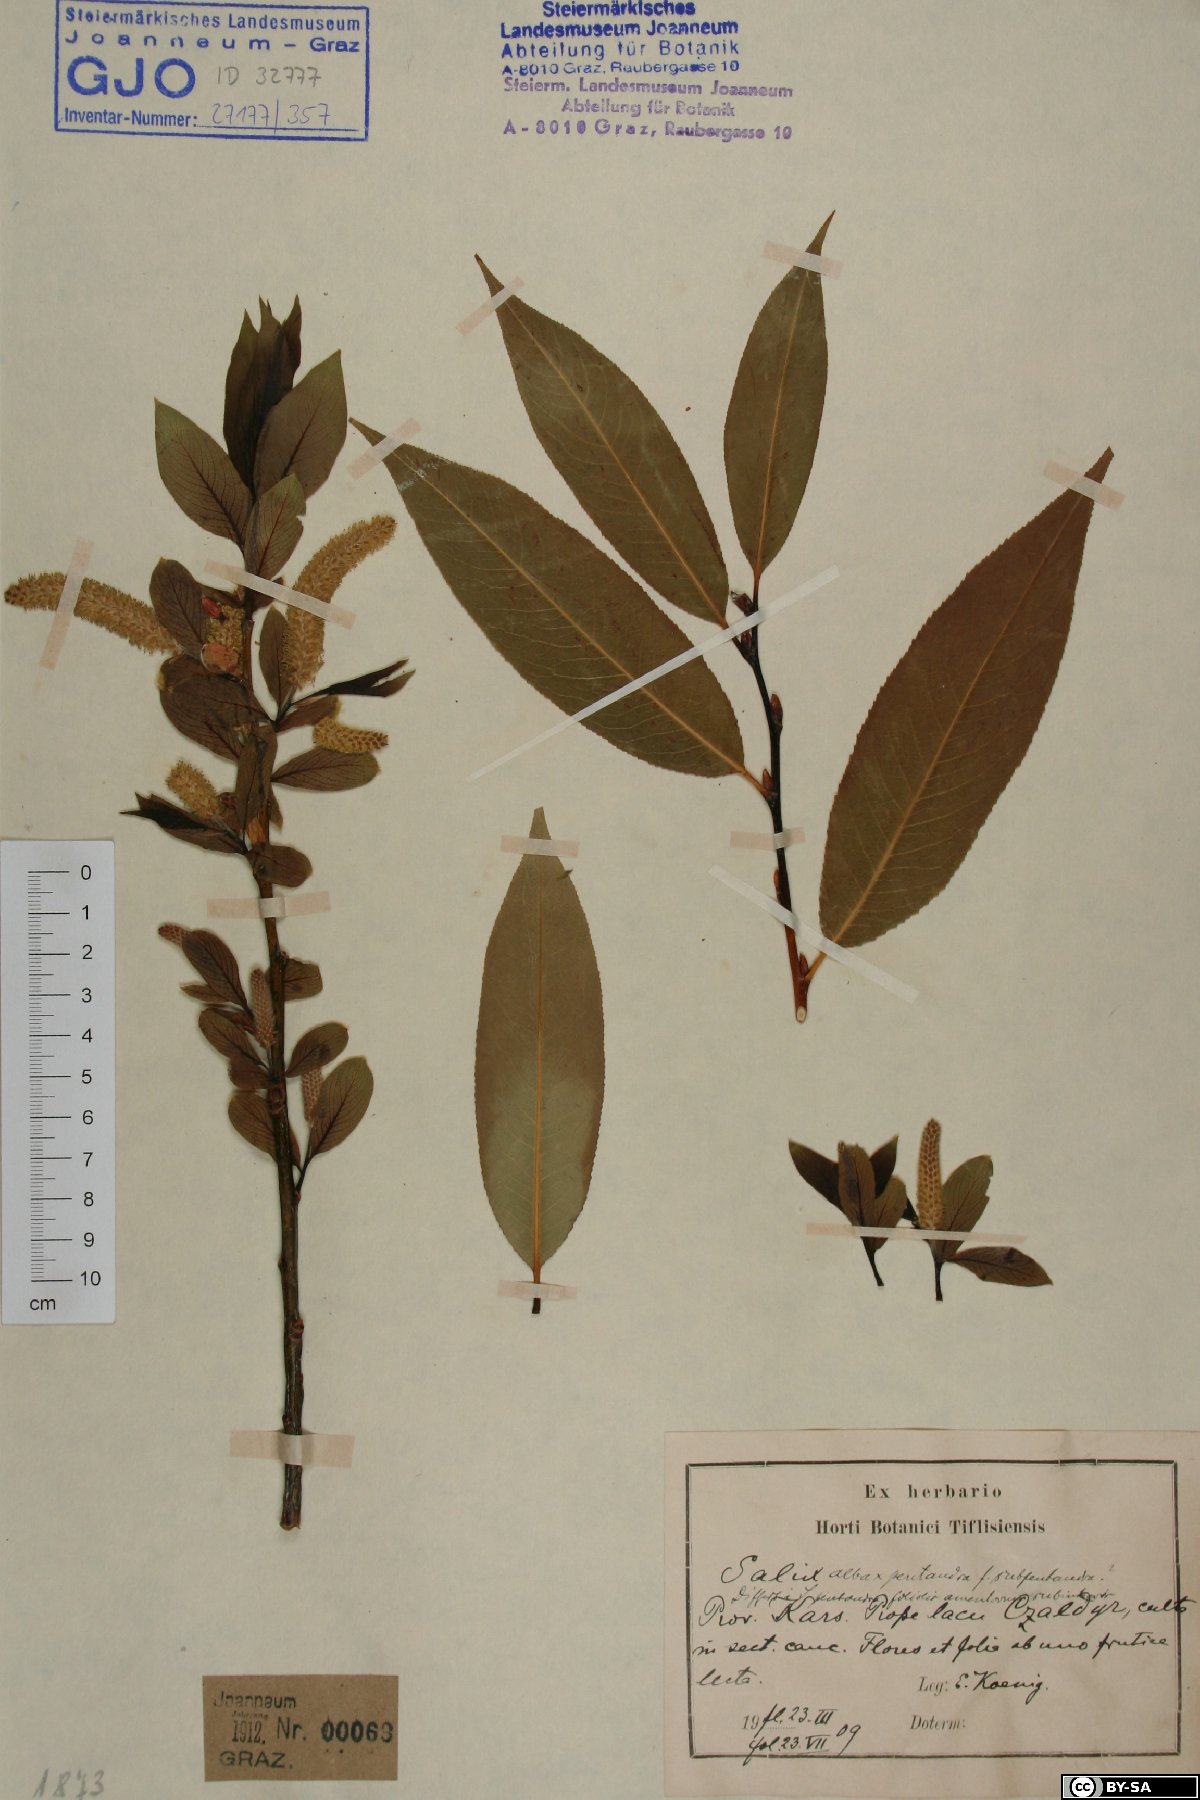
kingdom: Plantae
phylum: Tracheophyta
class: Magnoliopsida
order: Malpighiales
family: Salicaceae
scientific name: Salicaceae
